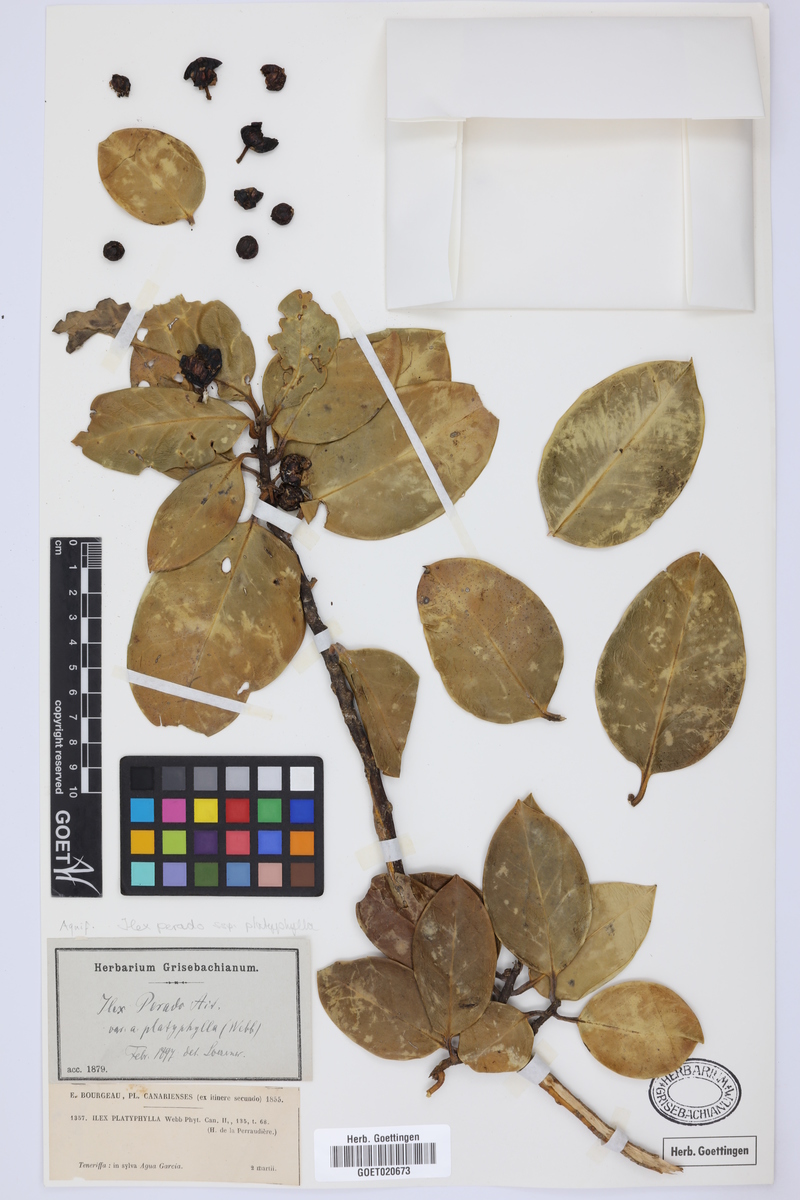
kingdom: Plantae
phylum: Tracheophyta
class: Magnoliopsida
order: Aquifoliales
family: Aquifoliaceae
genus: Ilex
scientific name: Ilex perado
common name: Madeira holly
